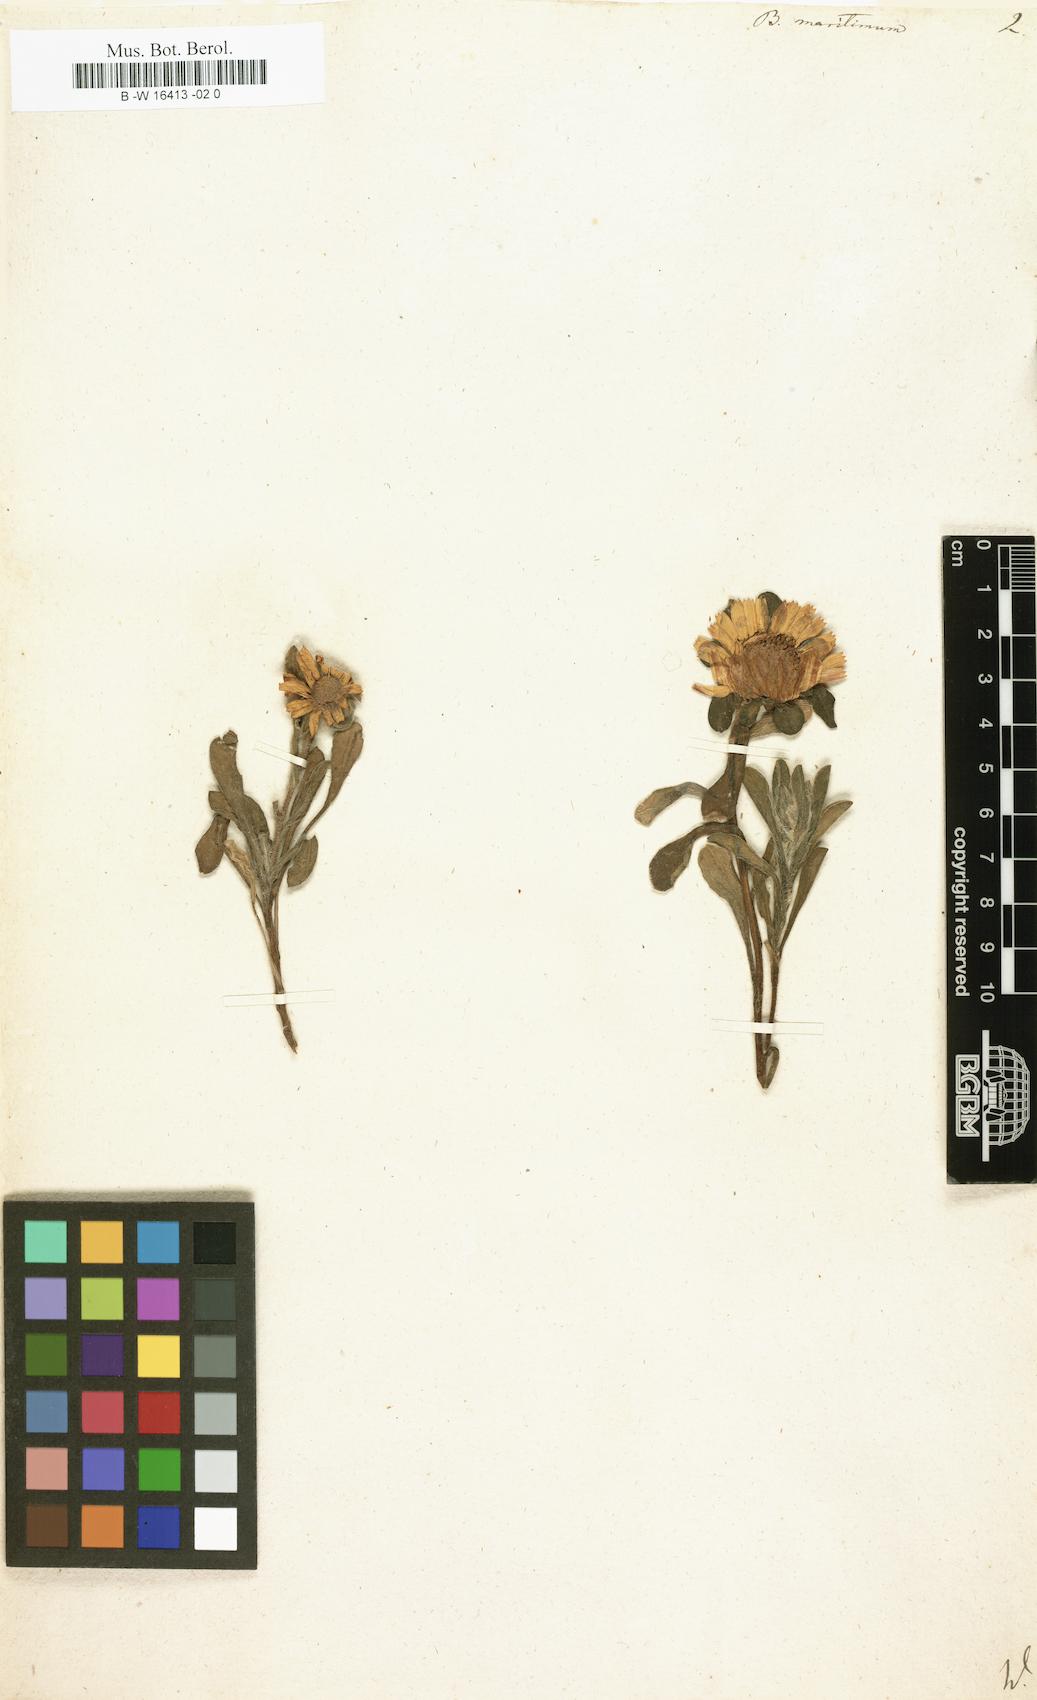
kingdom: Plantae
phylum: Tracheophyta
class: Magnoliopsida
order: Asterales
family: Asteraceae
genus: Pallenis
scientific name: Pallenis maritima
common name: Golden coin daisy
